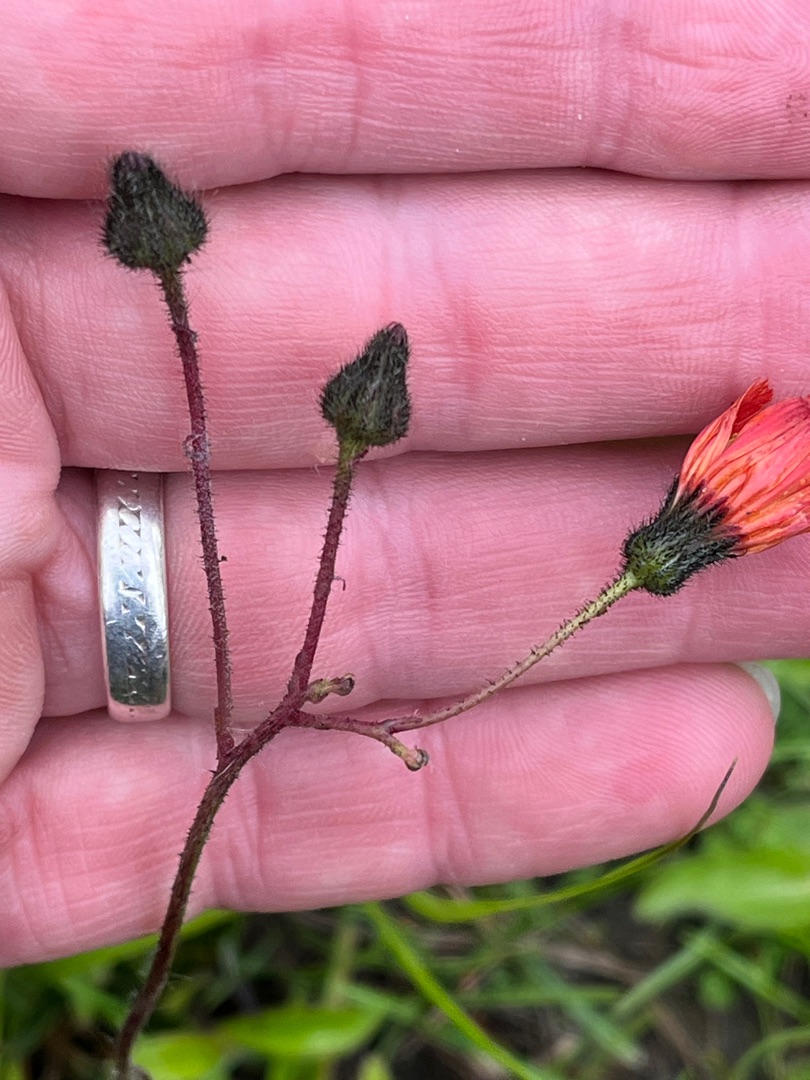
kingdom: Plantae
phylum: Tracheophyta
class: Magnoliopsida
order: Asterales
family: Asteraceae
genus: Pilosella
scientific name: Pilosella aurantiaca
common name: Pomerans-høgeurt
